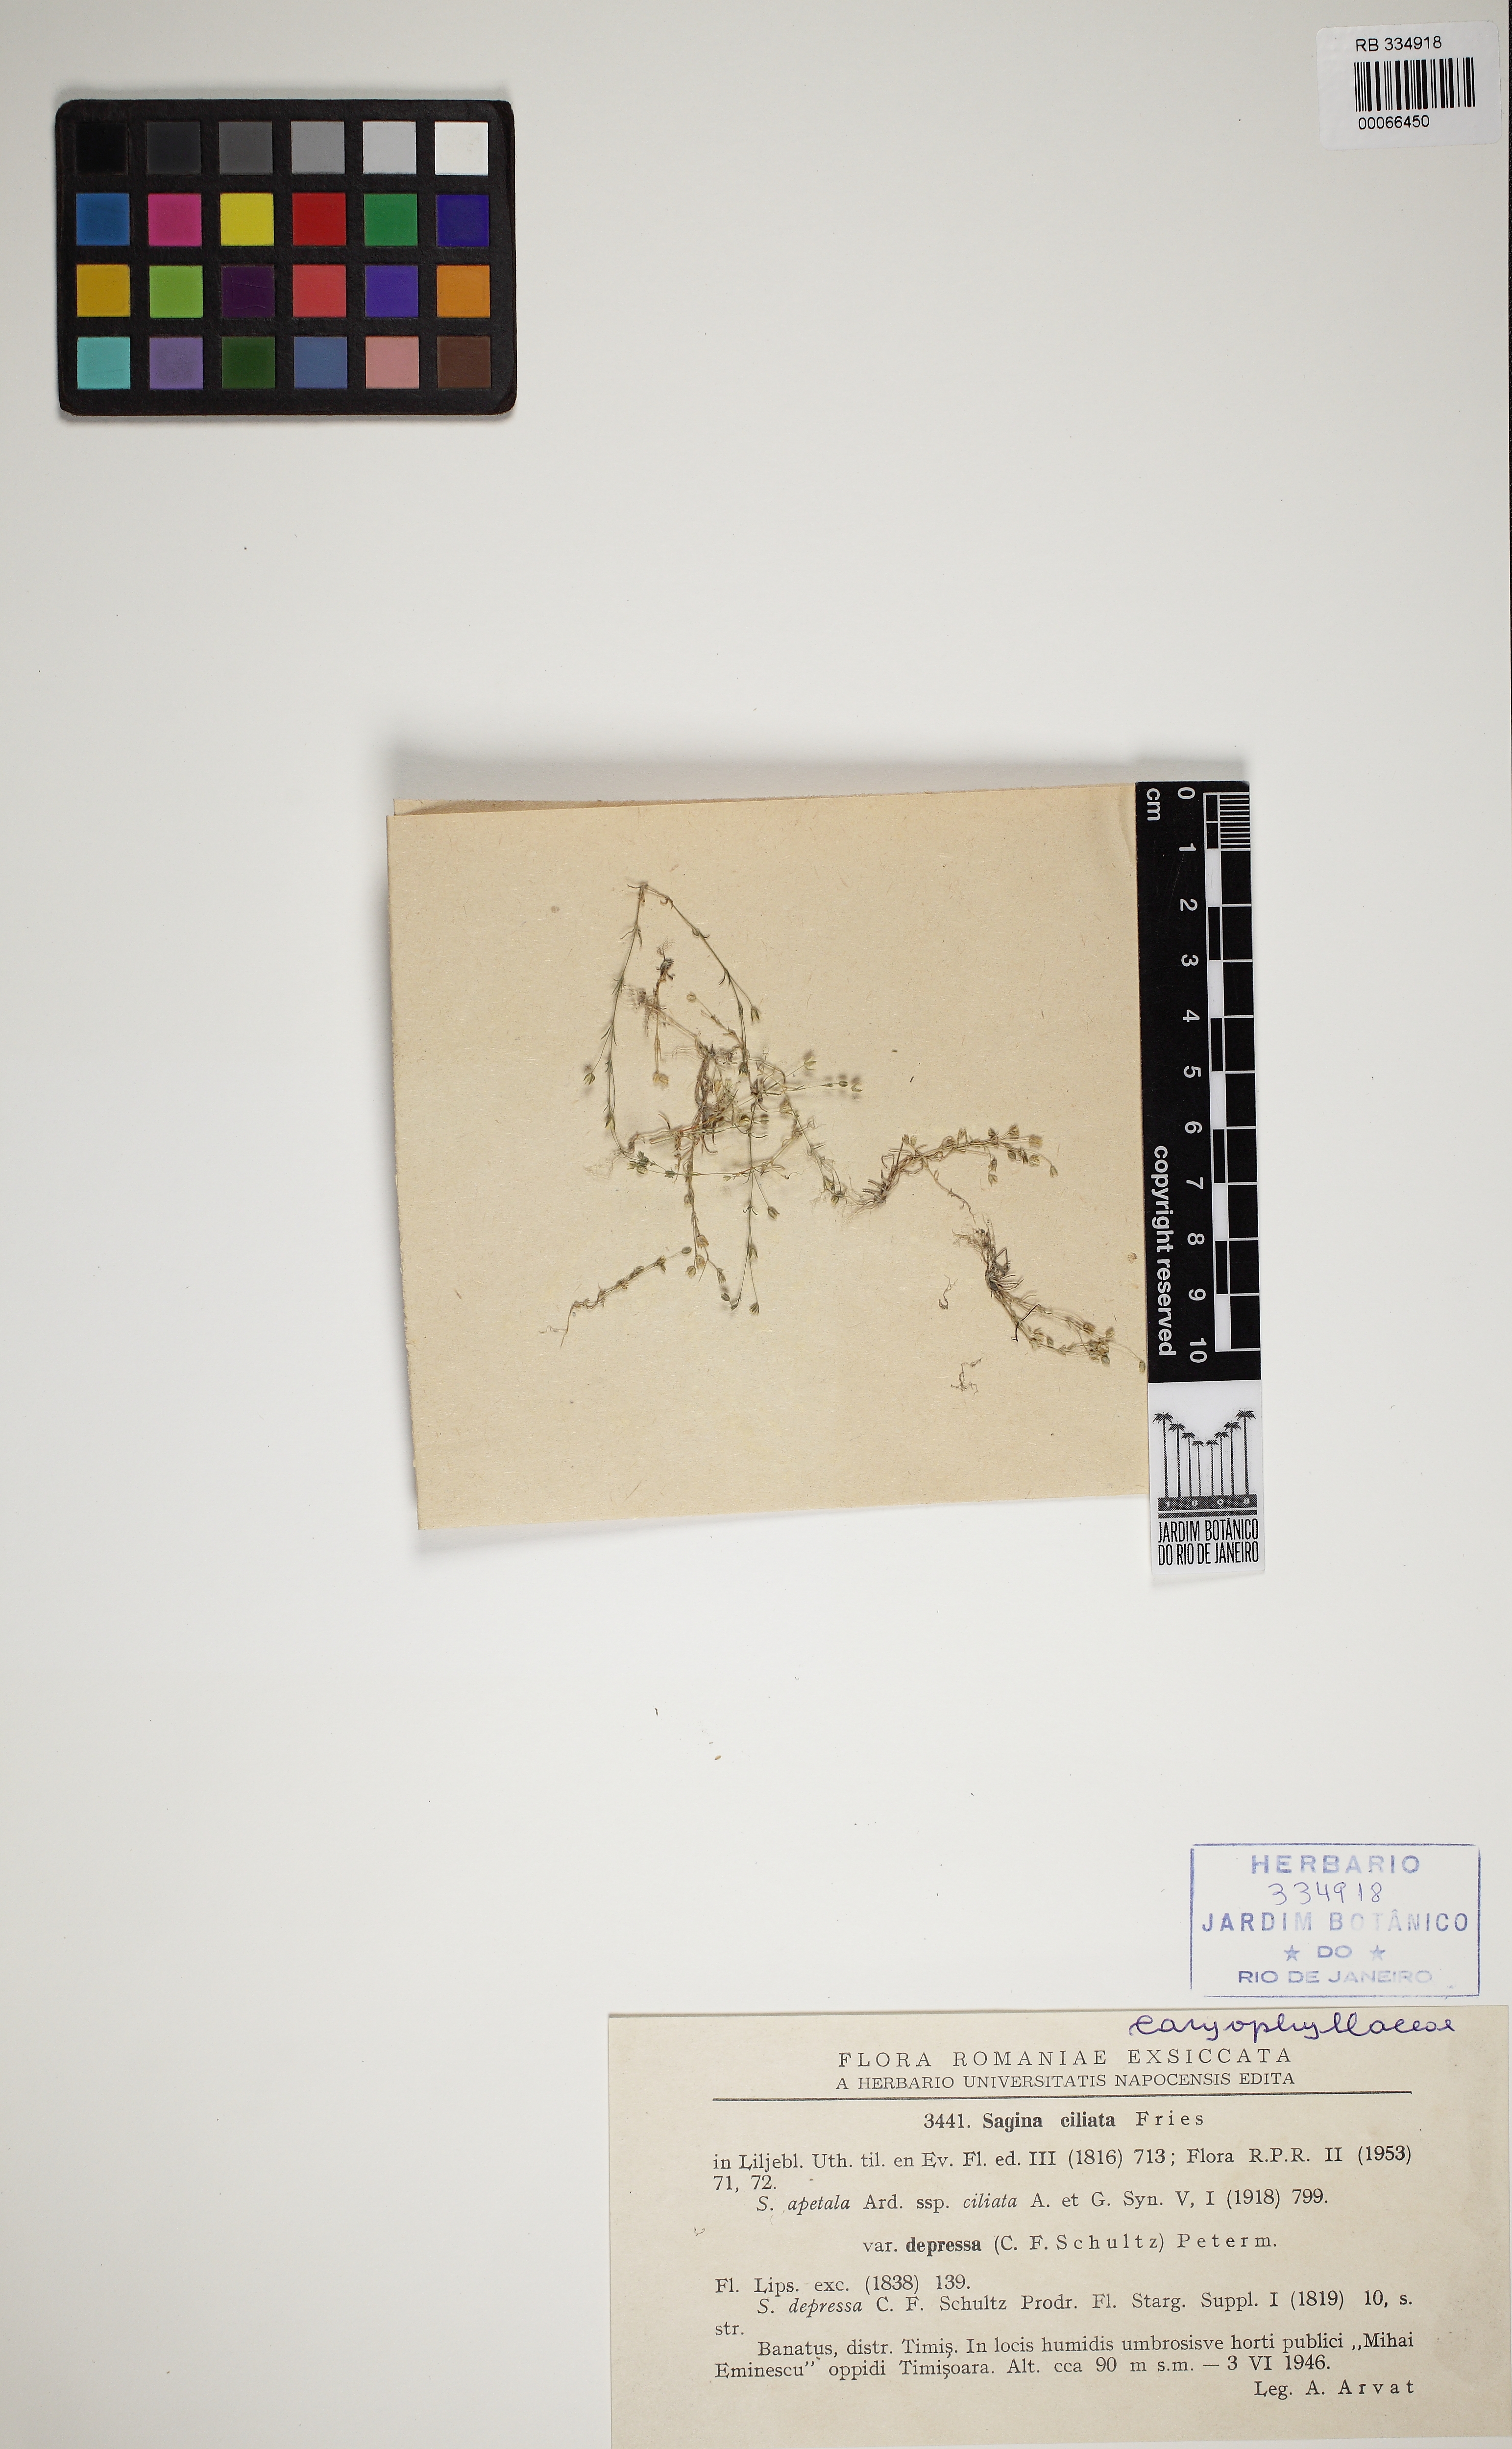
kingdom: Plantae
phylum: Tracheophyta
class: Magnoliopsida
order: Caryophyllales
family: Caryophyllaceae
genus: Sagina
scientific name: Sagina apetala
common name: Annual pearlwort
